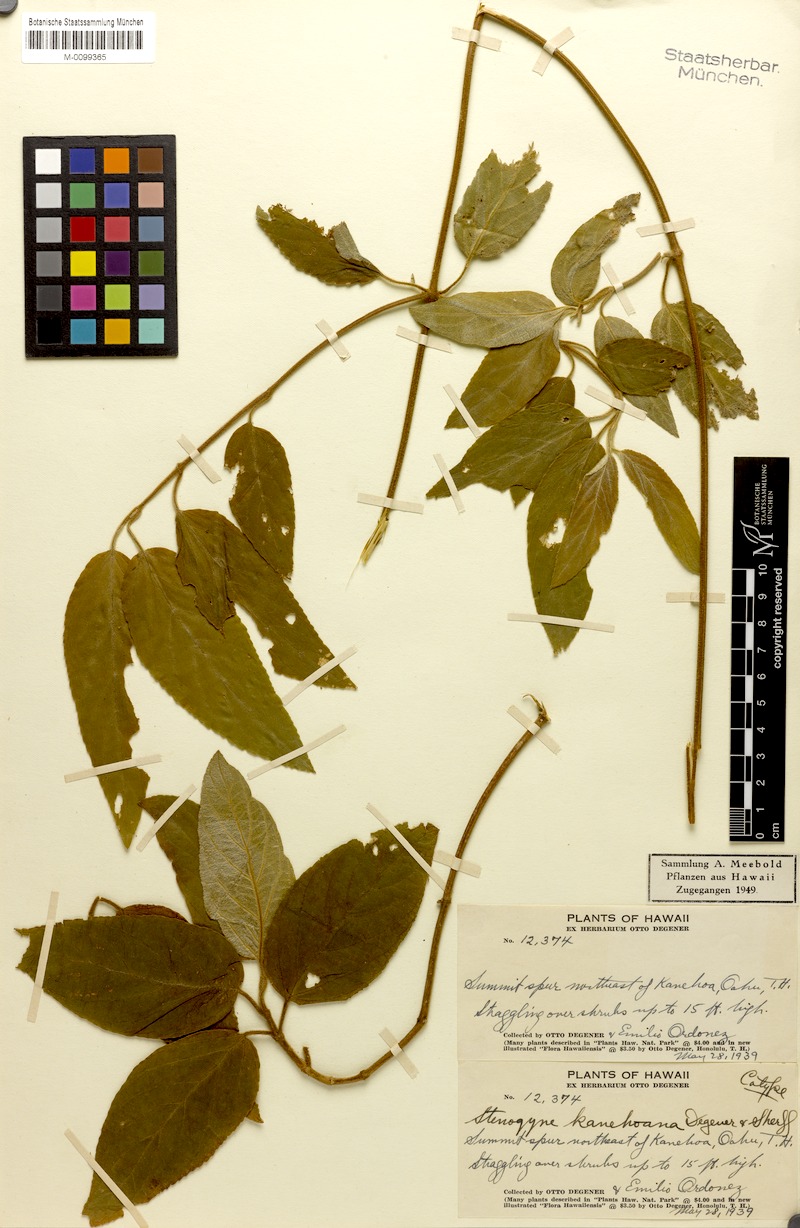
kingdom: Plantae
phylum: Tracheophyta
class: Magnoliopsida
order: Lamiales
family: Lamiaceae
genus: Stenogyne
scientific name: Stenogyne calaminthoides
